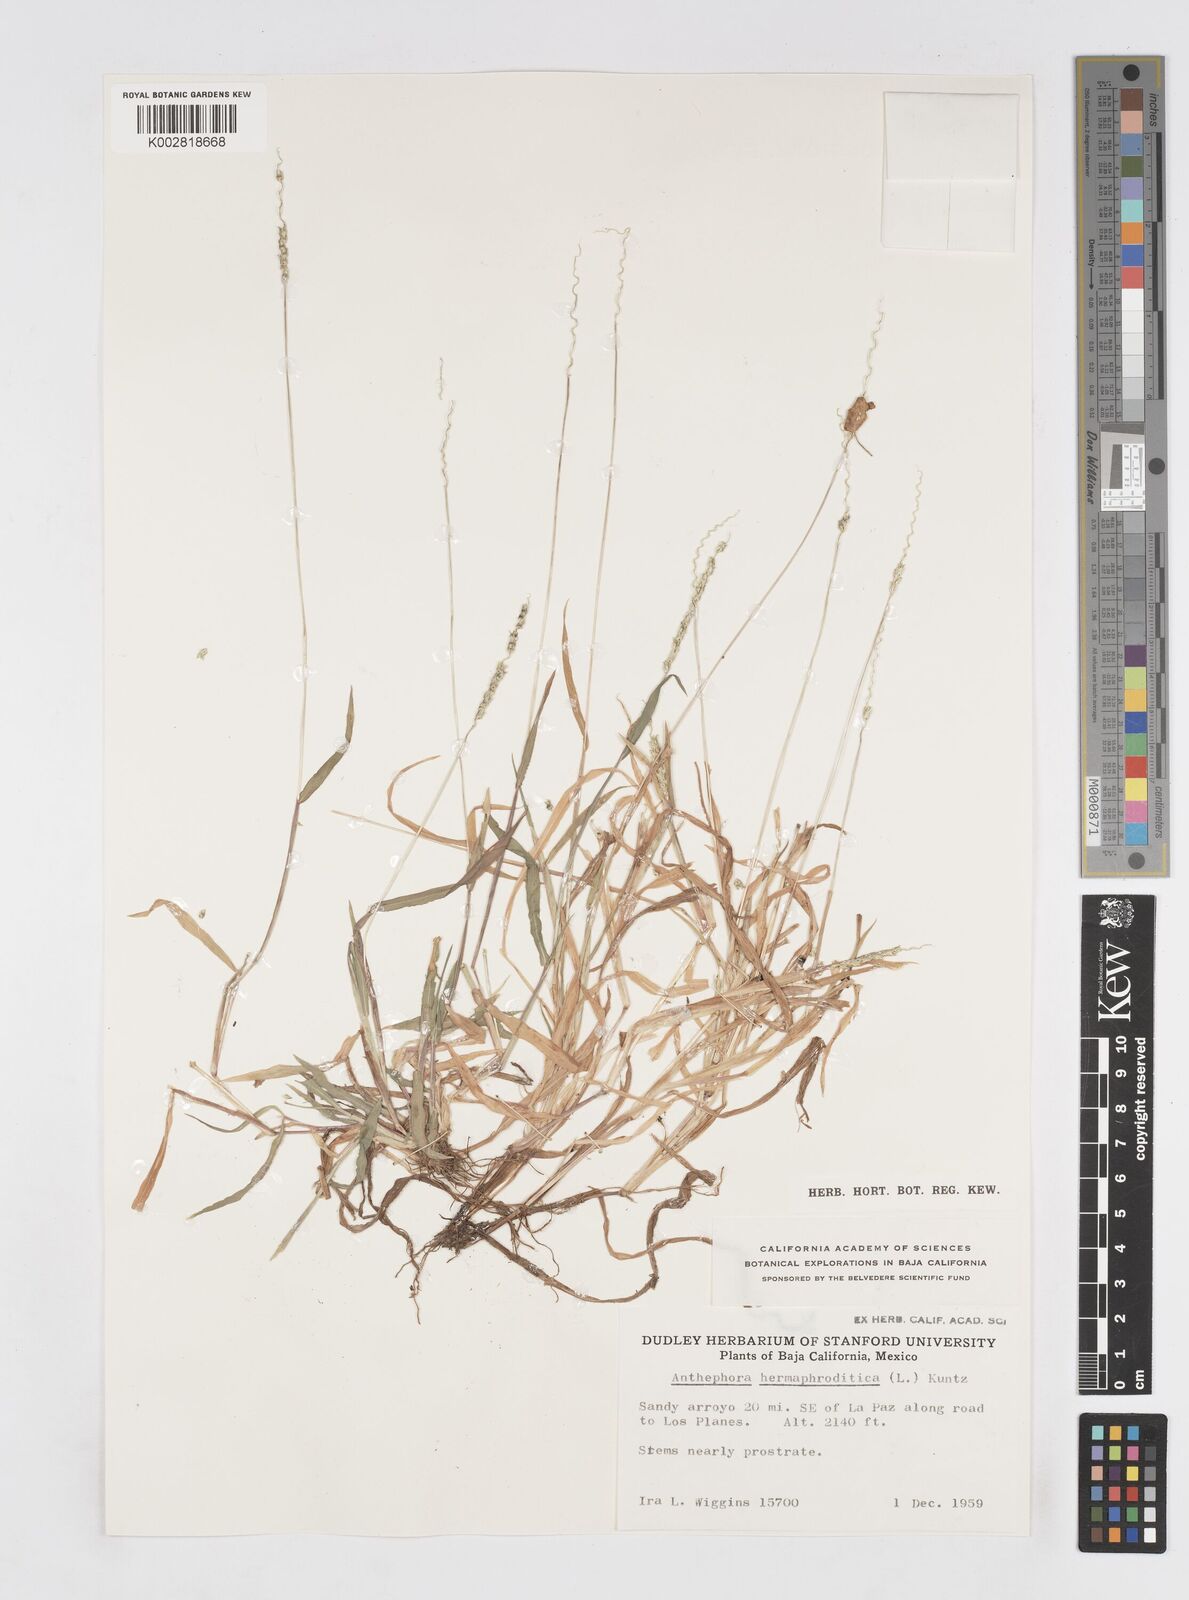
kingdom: Plantae
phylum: Tracheophyta
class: Liliopsida
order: Poales
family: Poaceae
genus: Anthephora
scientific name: Anthephora hermaphrodita
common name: Oldfield grass
